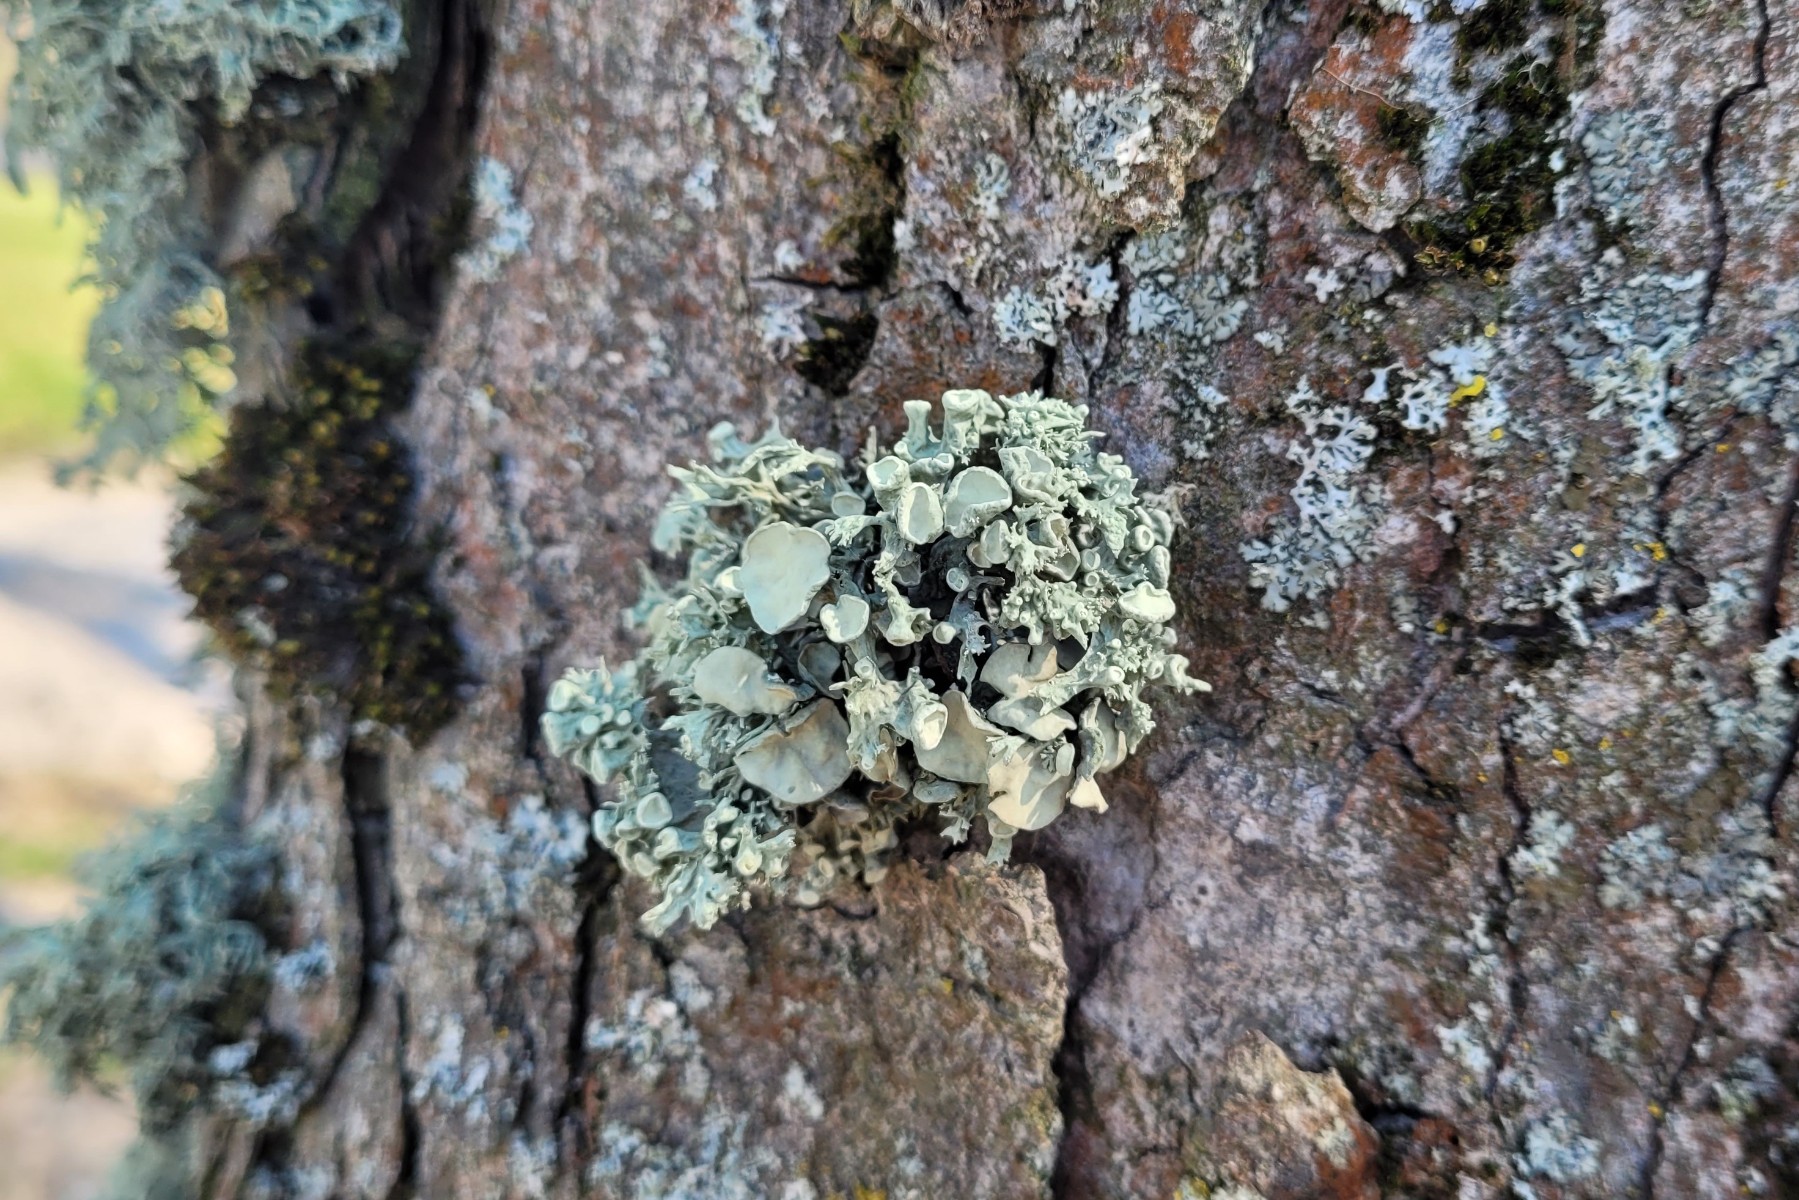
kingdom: Fungi
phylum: Ascomycota
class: Lecanoromycetes
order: Lecanorales
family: Ramalinaceae
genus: Ramalina
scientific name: Ramalina fastigiata
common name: tue-grenlav
